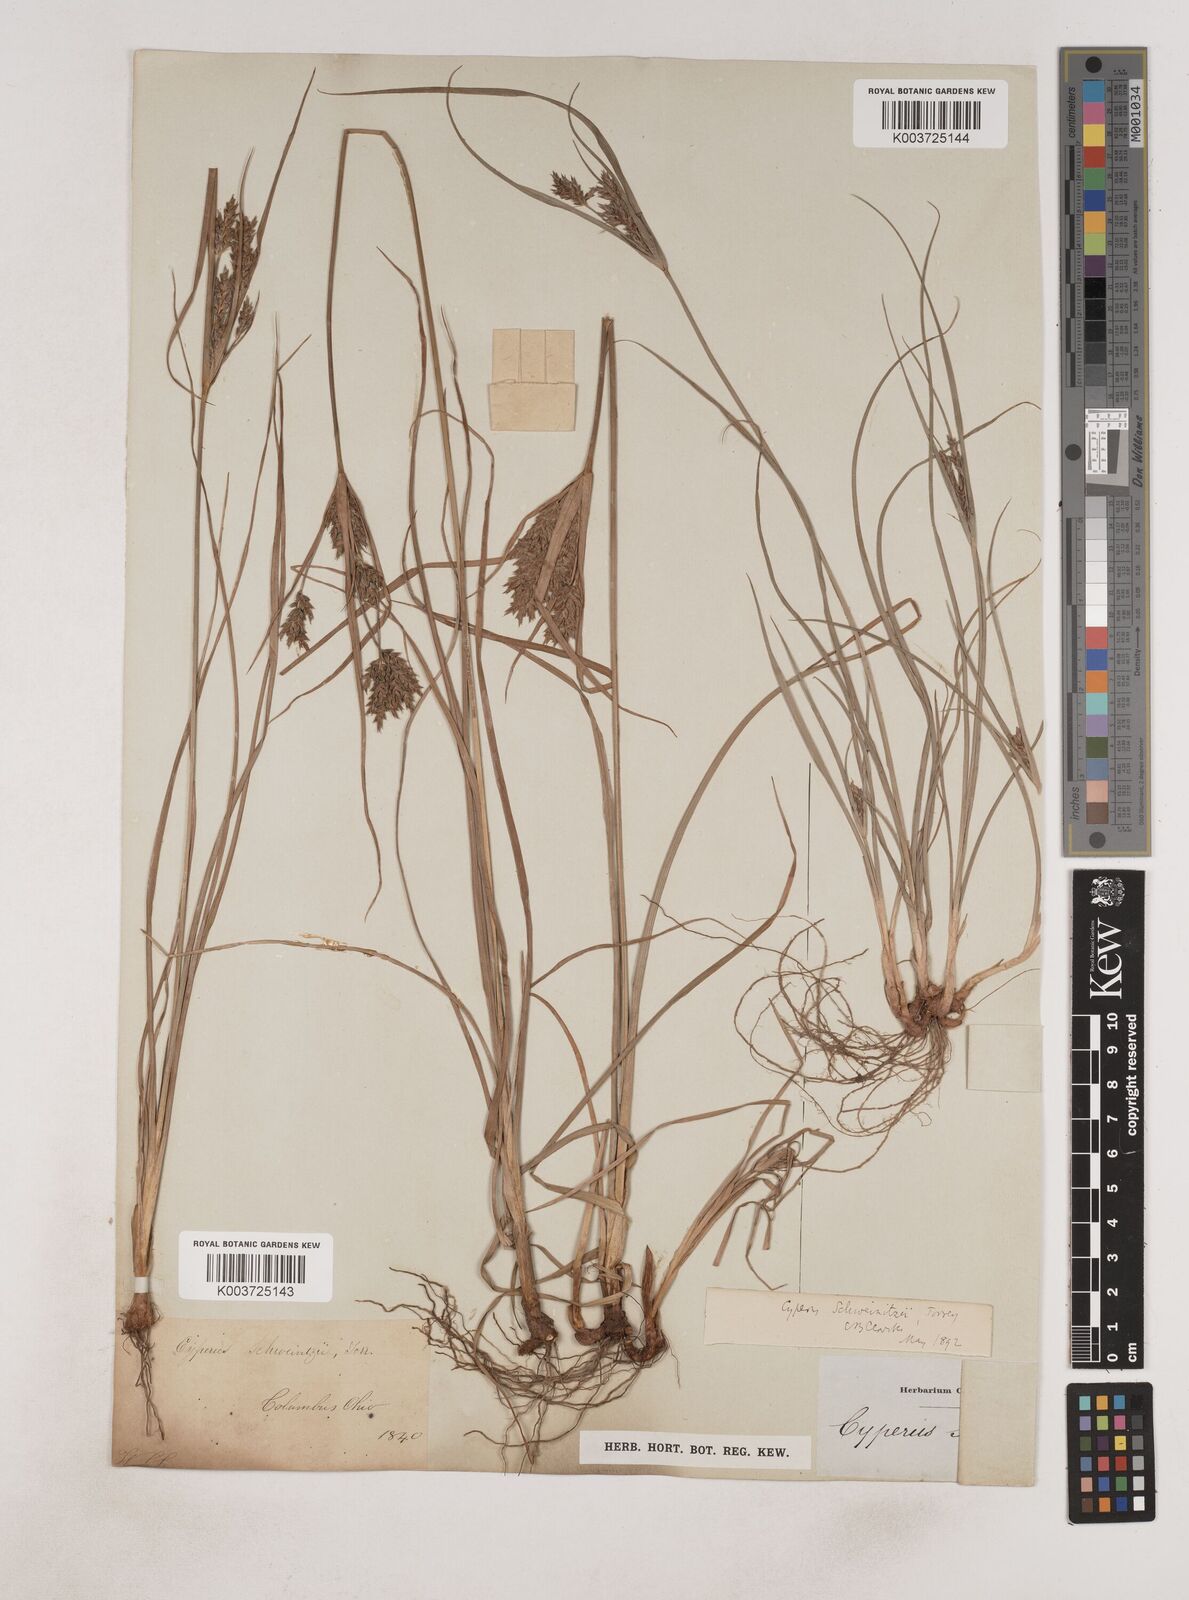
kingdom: Plantae
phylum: Tracheophyta
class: Liliopsida
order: Poales
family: Cyperaceae
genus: Cyperus
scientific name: Cyperus schweinitzii
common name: Schweinitz's cyperus
